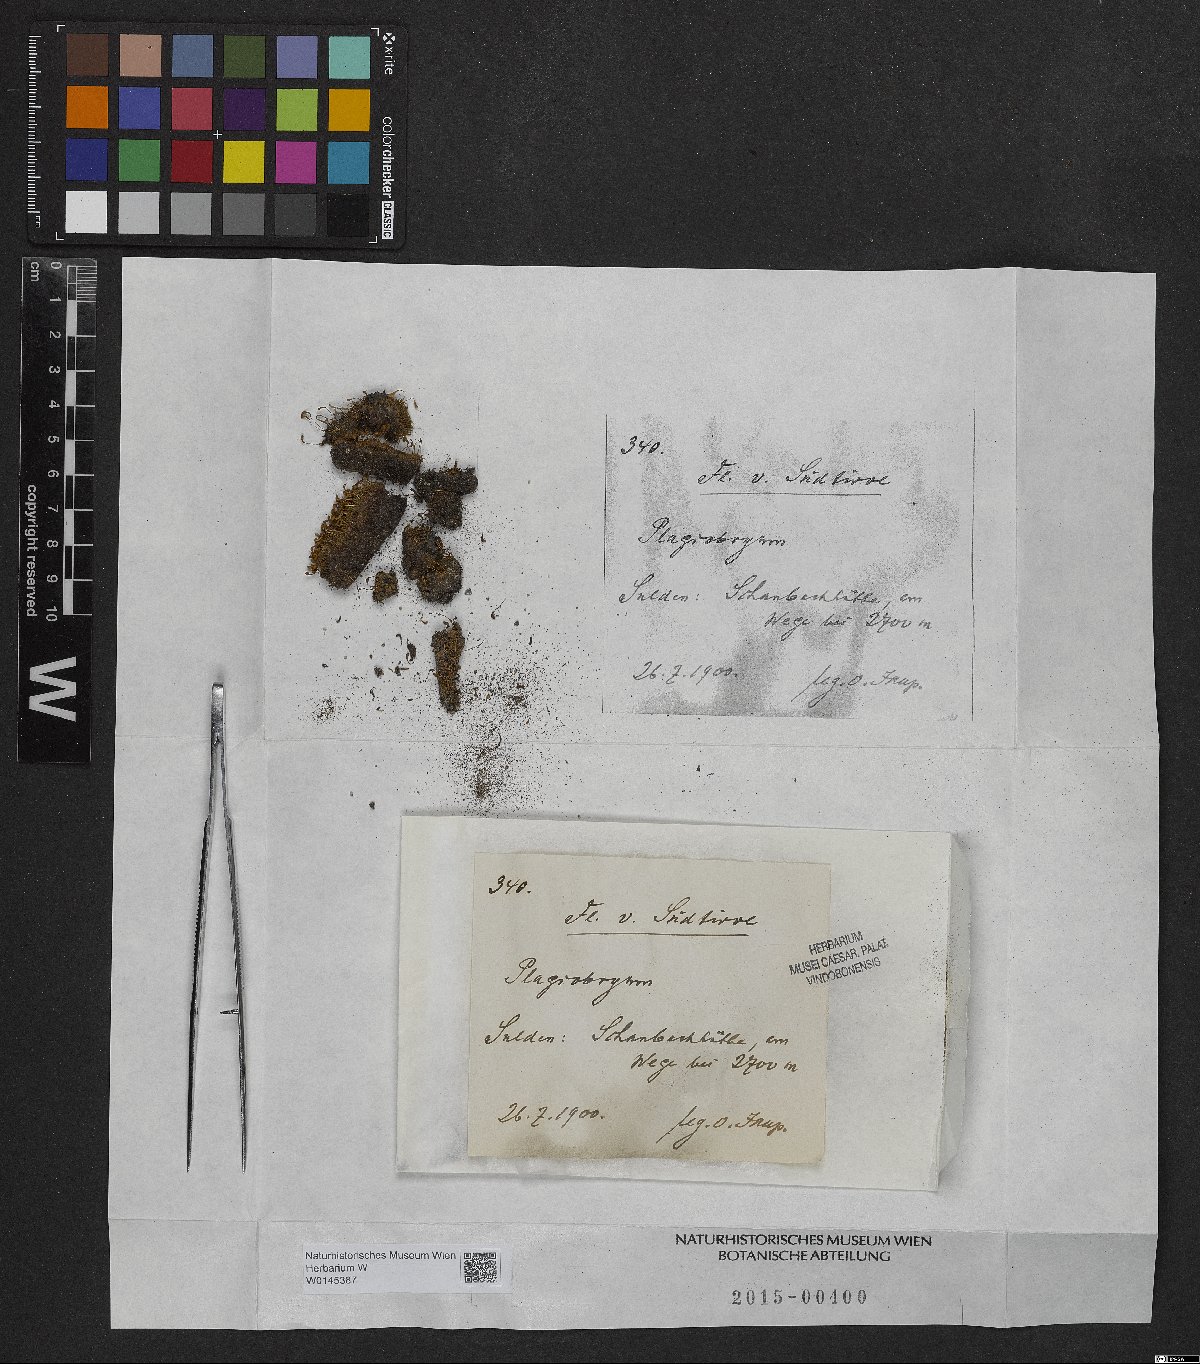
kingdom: Plantae
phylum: Bryophyta
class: Bryopsida
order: Bryales
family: Bryaceae
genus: Plagiobryum
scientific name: Plagiobryum
